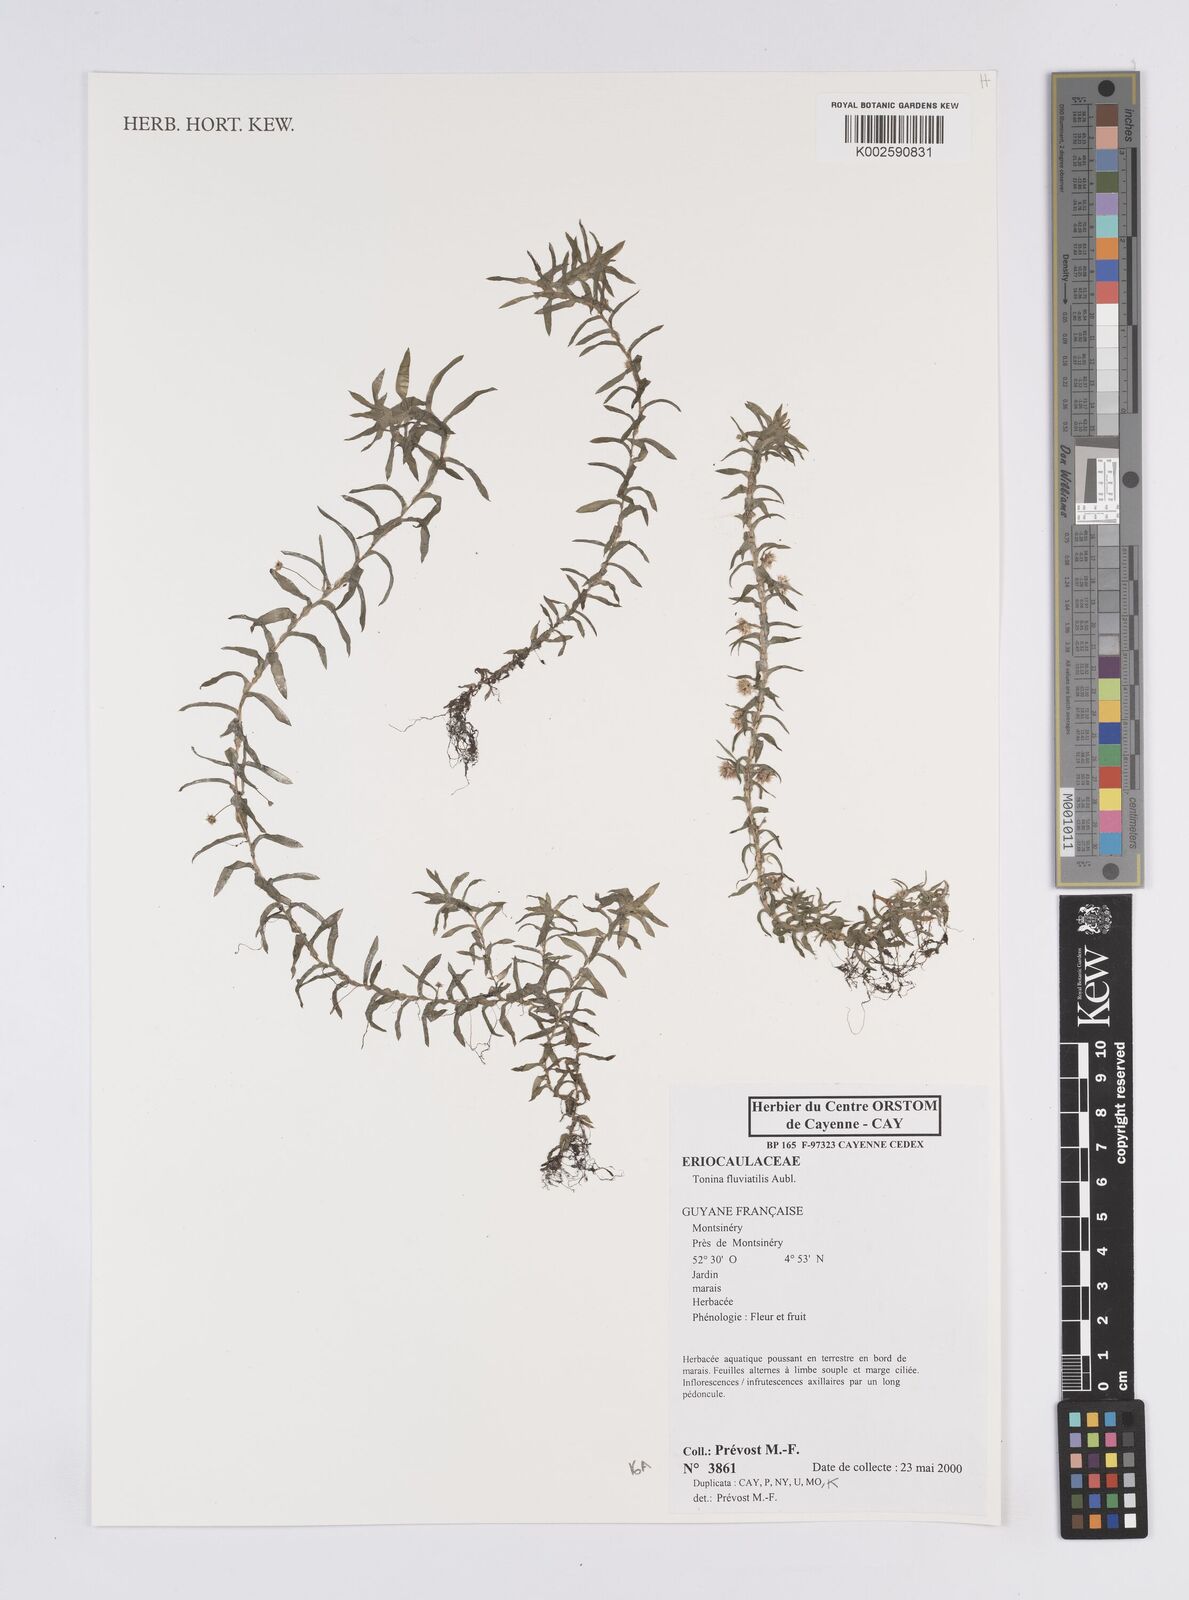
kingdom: Plantae
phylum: Tracheophyta
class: Liliopsida
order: Poales
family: Eriocaulaceae
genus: Paepalanthus
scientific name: Paepalanthus fluviatilis
